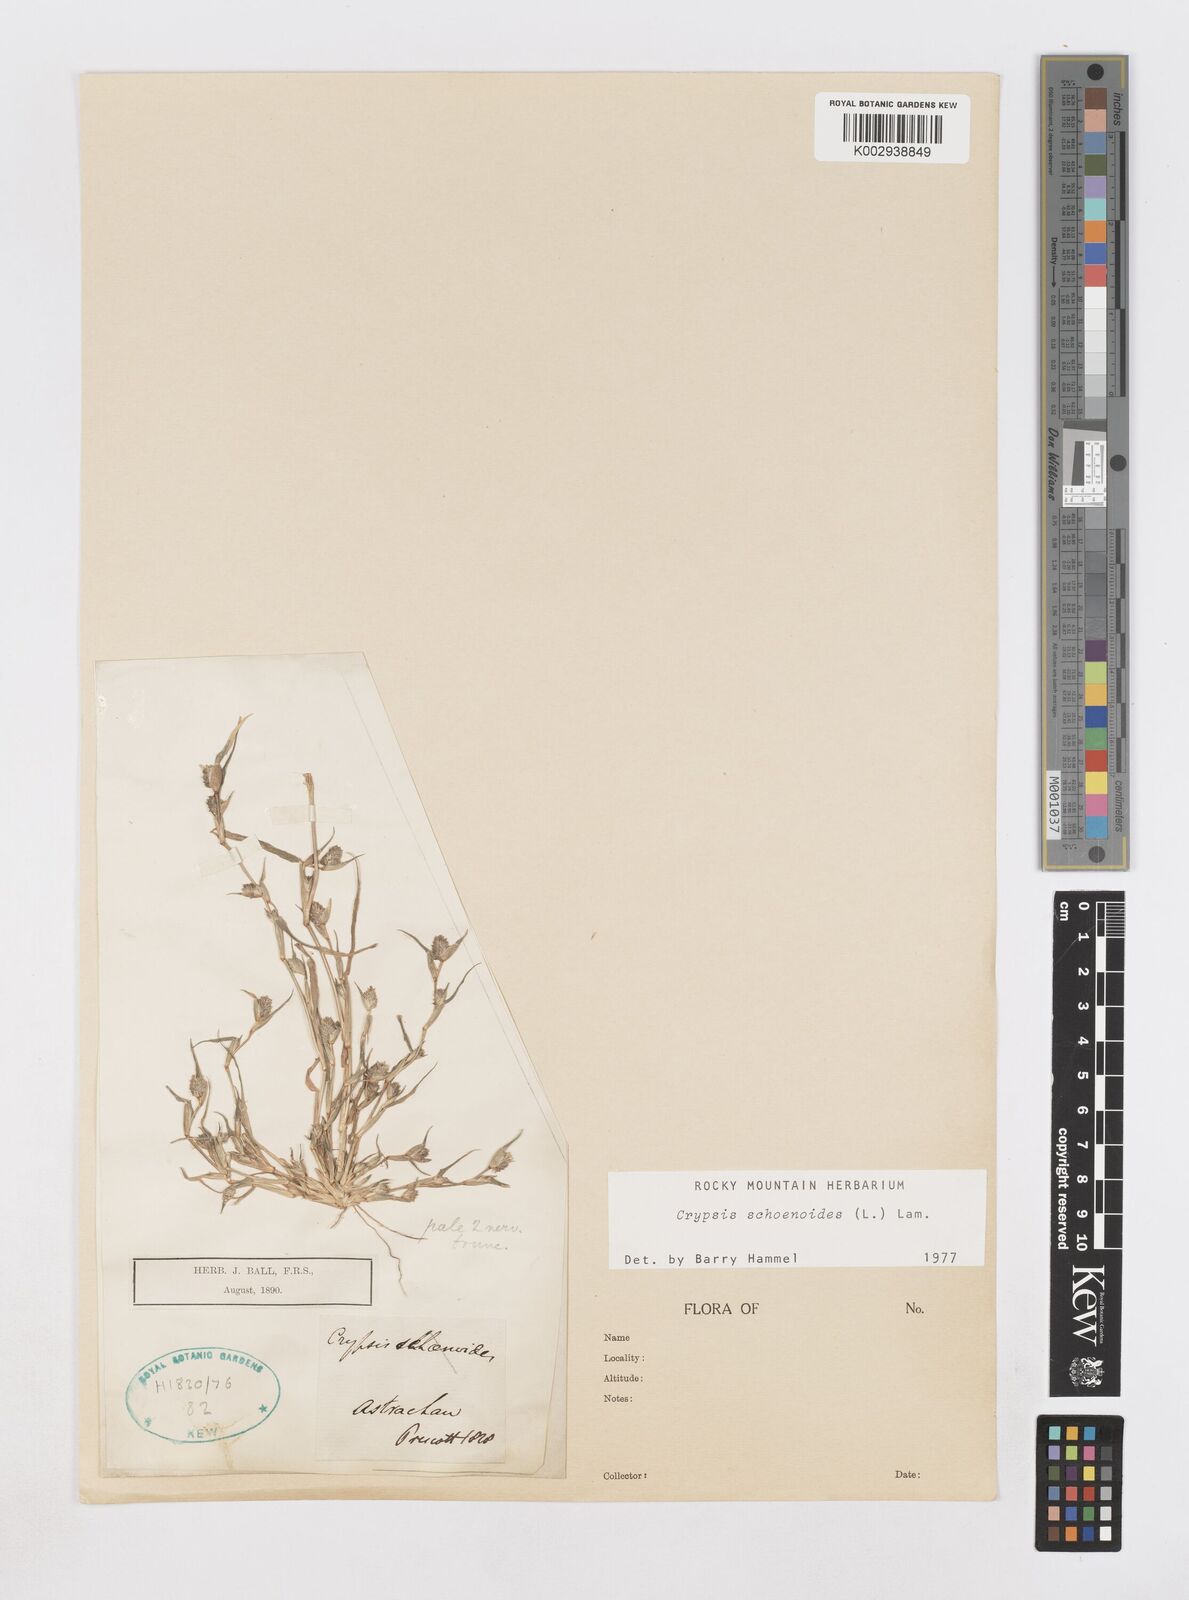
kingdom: Plantae
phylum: Tracheophyta
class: Liliopsida
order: Poales
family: Poaceae
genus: Sporobolus
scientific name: Sporobolus schoenoides
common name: Rush-like timothy
